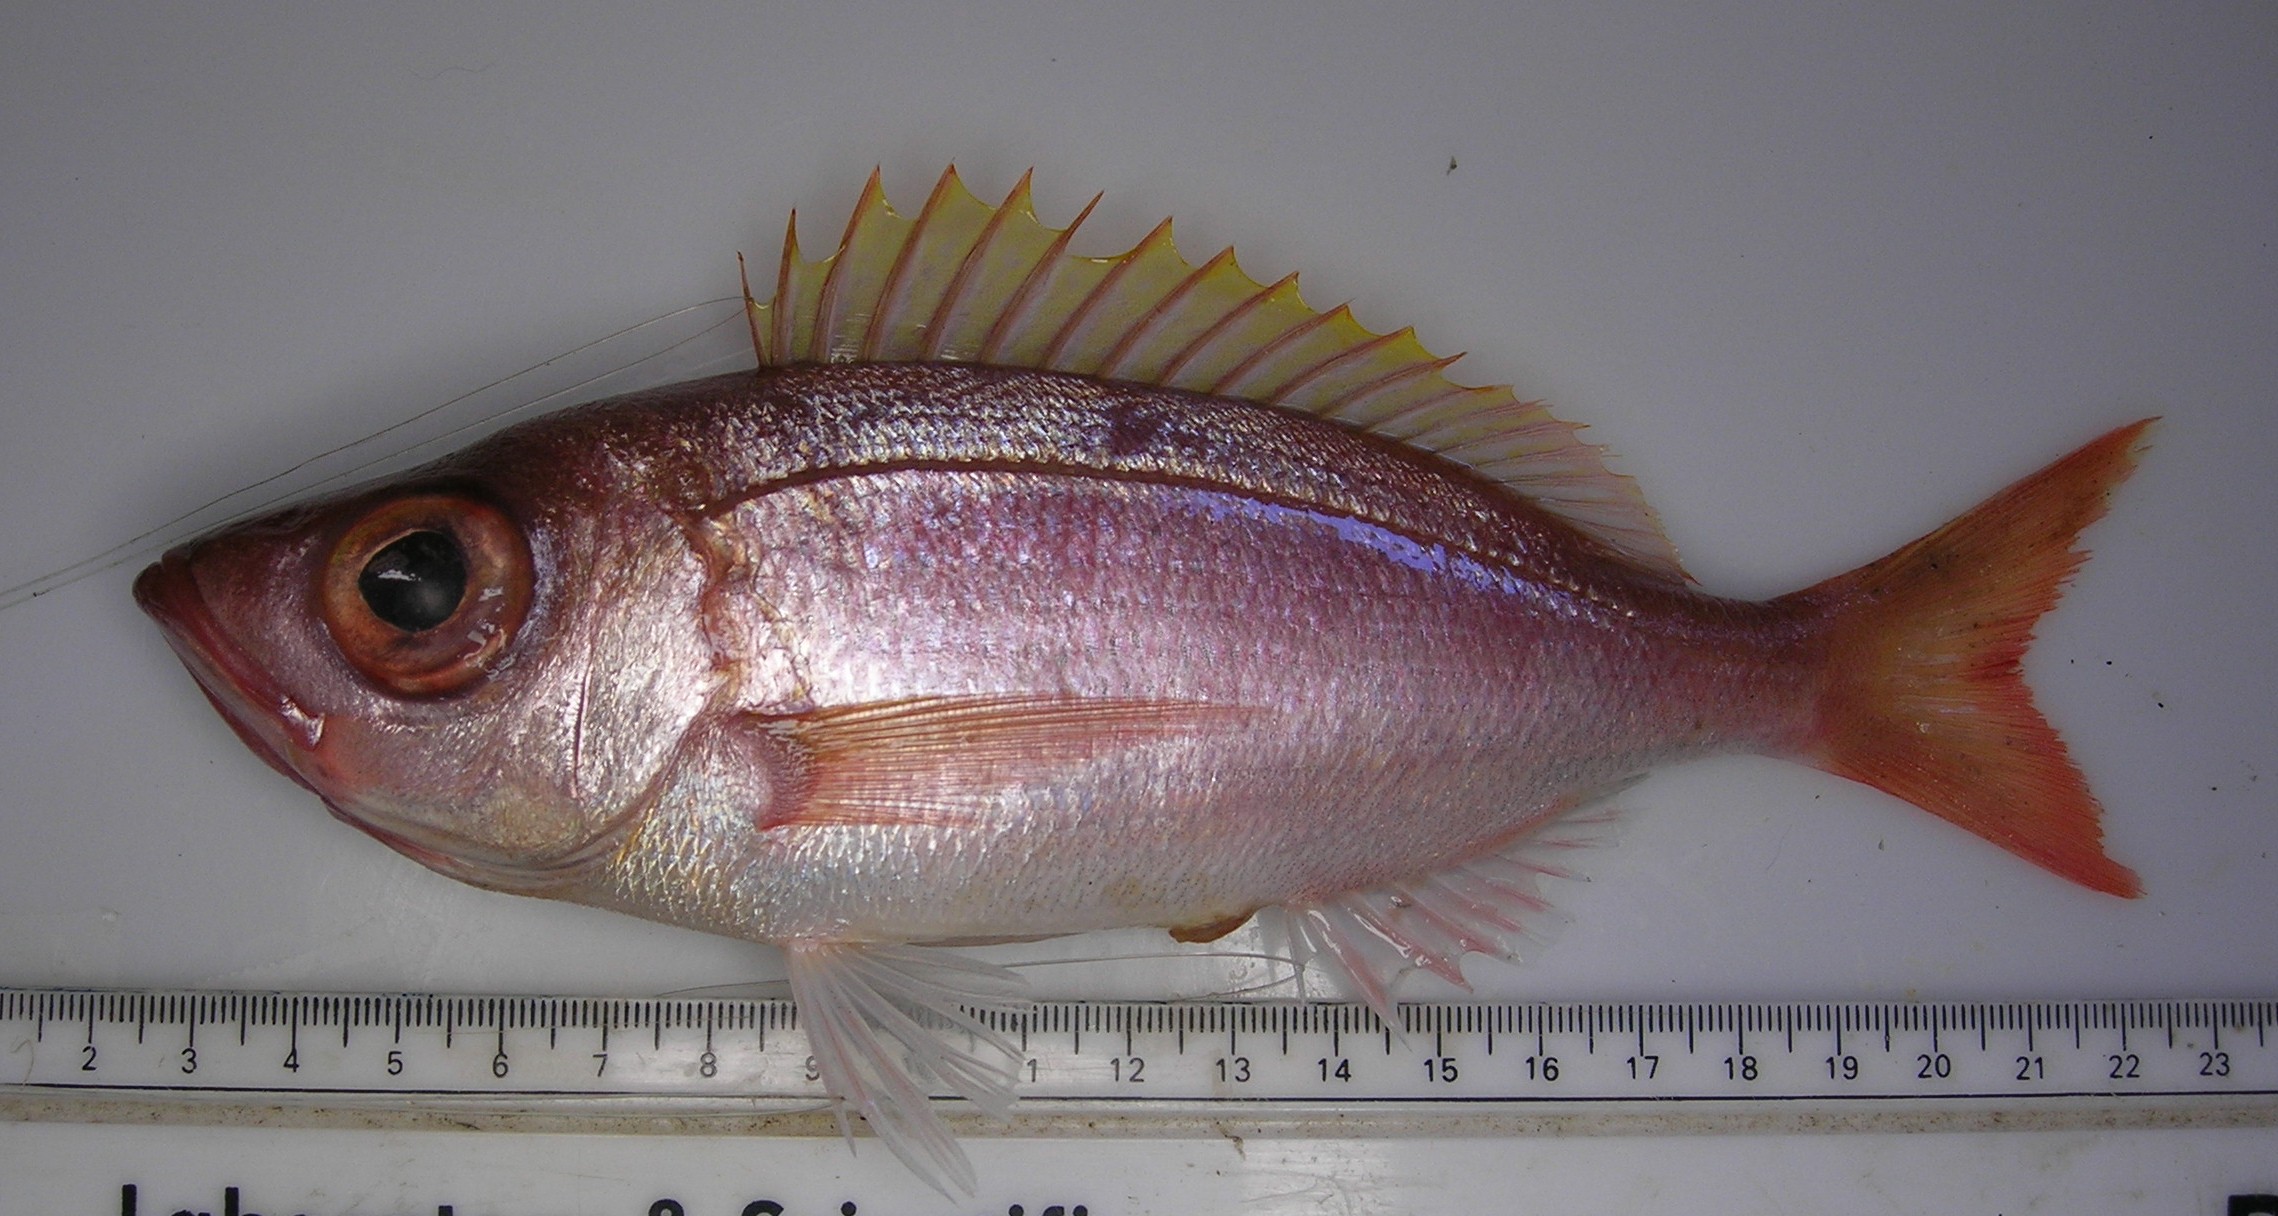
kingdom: Animalia
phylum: Chordata
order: Perciformes
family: Sparidae
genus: Spicara
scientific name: Spicara australis
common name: Picarel
